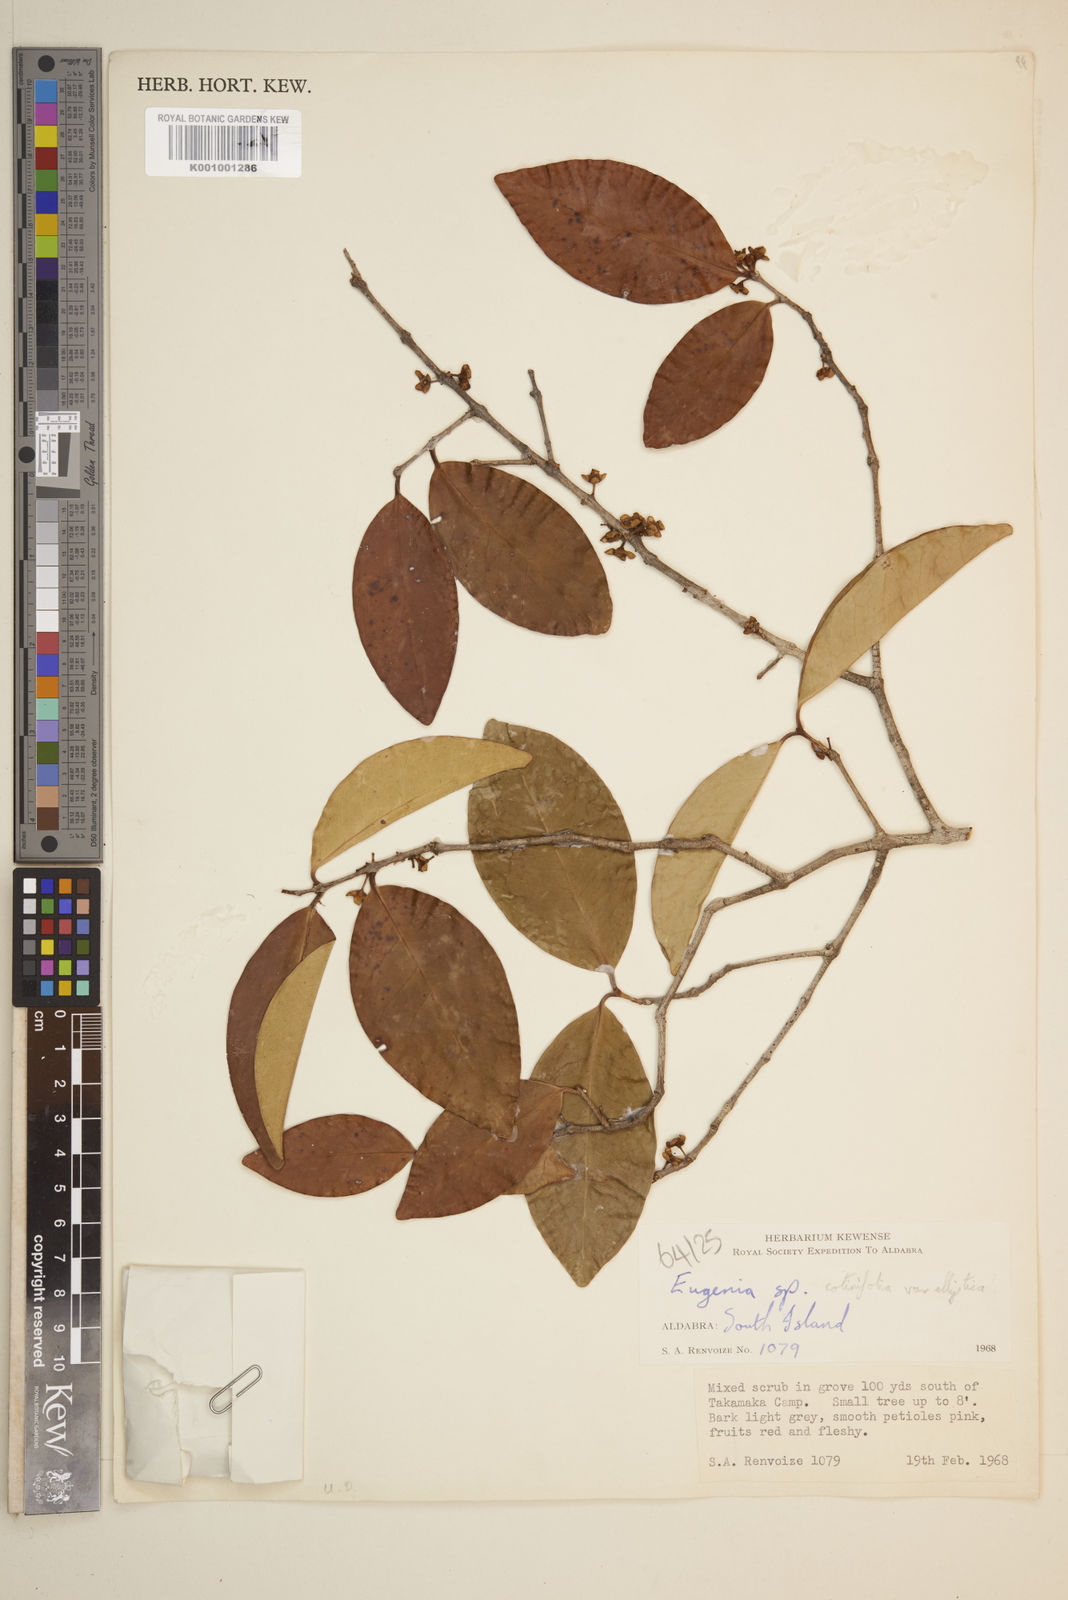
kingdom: Plantae
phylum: Tracheophyta
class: Magnoliopsida
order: Myrtales
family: Myrtaceae
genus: Myrcia
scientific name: Myrcia guianensis
